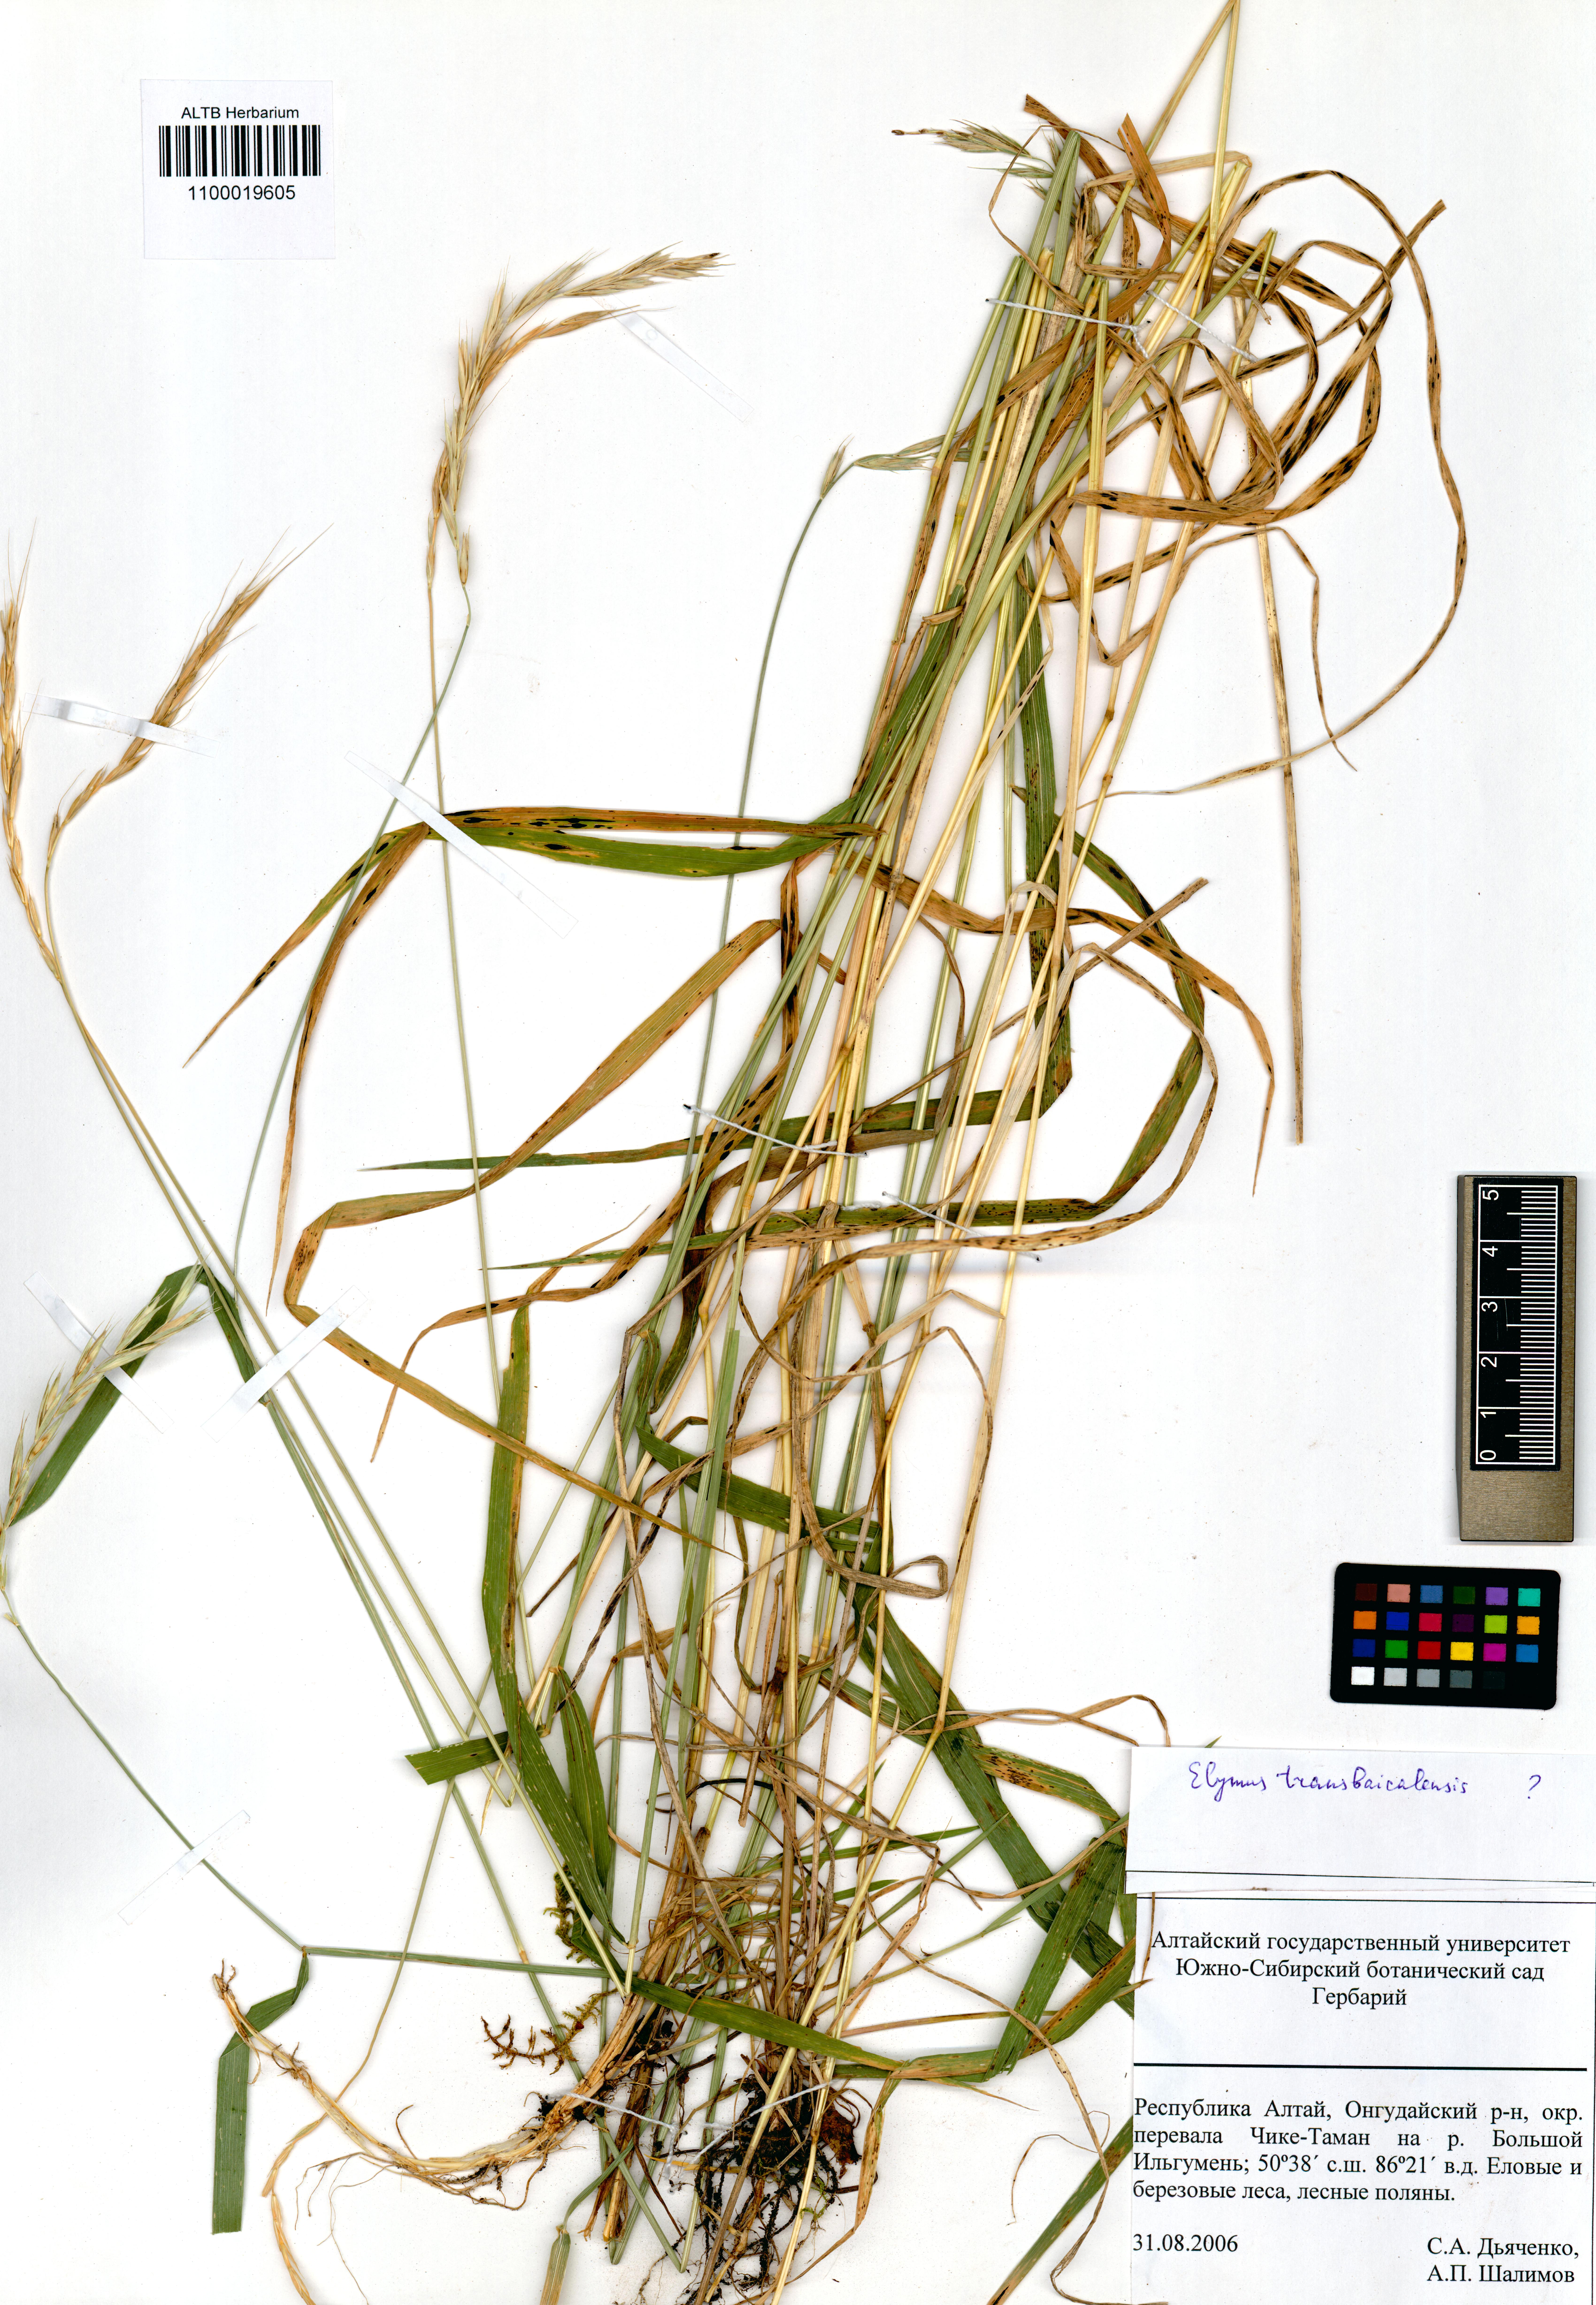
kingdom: Plantae
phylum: Tracheophyta
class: Liliopsida
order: Poales
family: Poaceae
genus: Elymus
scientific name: Elymus mutabilis
